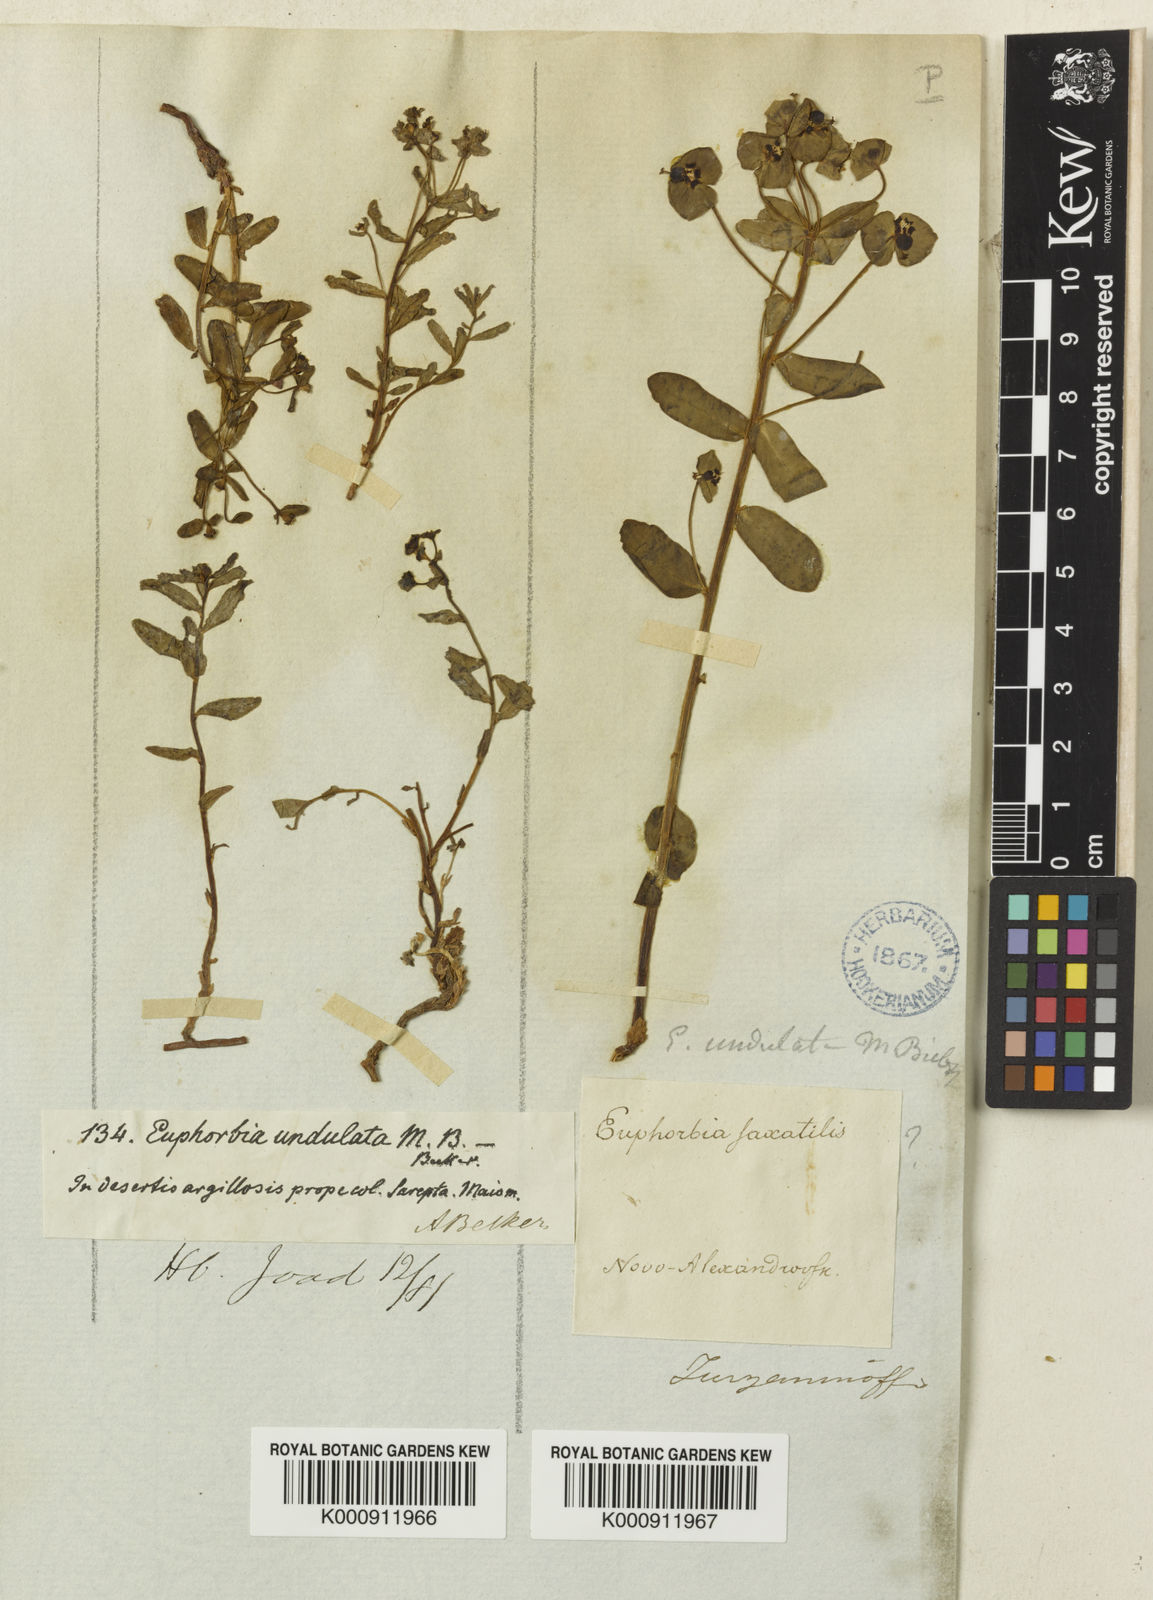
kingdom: Plantae
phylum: Tracheophyta
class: Magnoliopsida
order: Malpighiales
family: Euphorbiaceae
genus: Euphorbia
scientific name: Euphorbia
